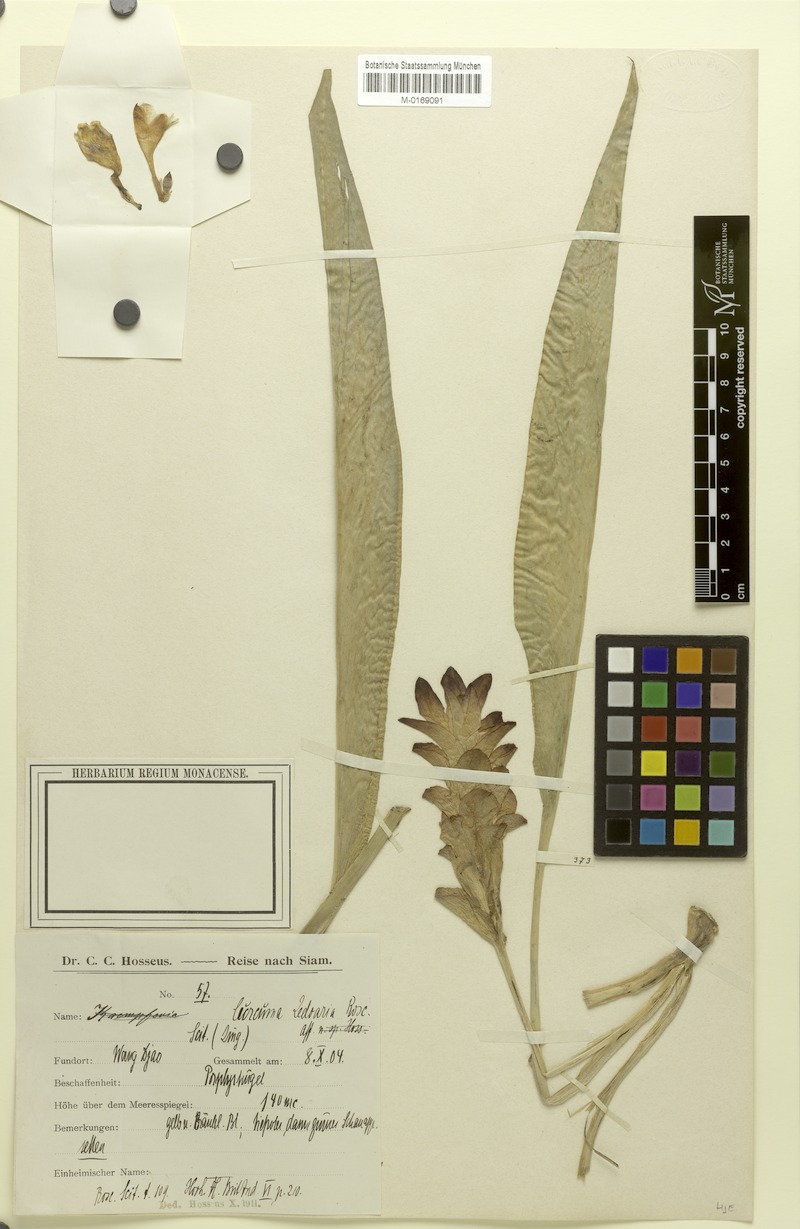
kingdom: Plantae
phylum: Tracheophyta
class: Liliopsida
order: Zingiberales
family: Zingiberaceae
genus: Curcuma
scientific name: Curcuma zedoaria
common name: Zedoary
